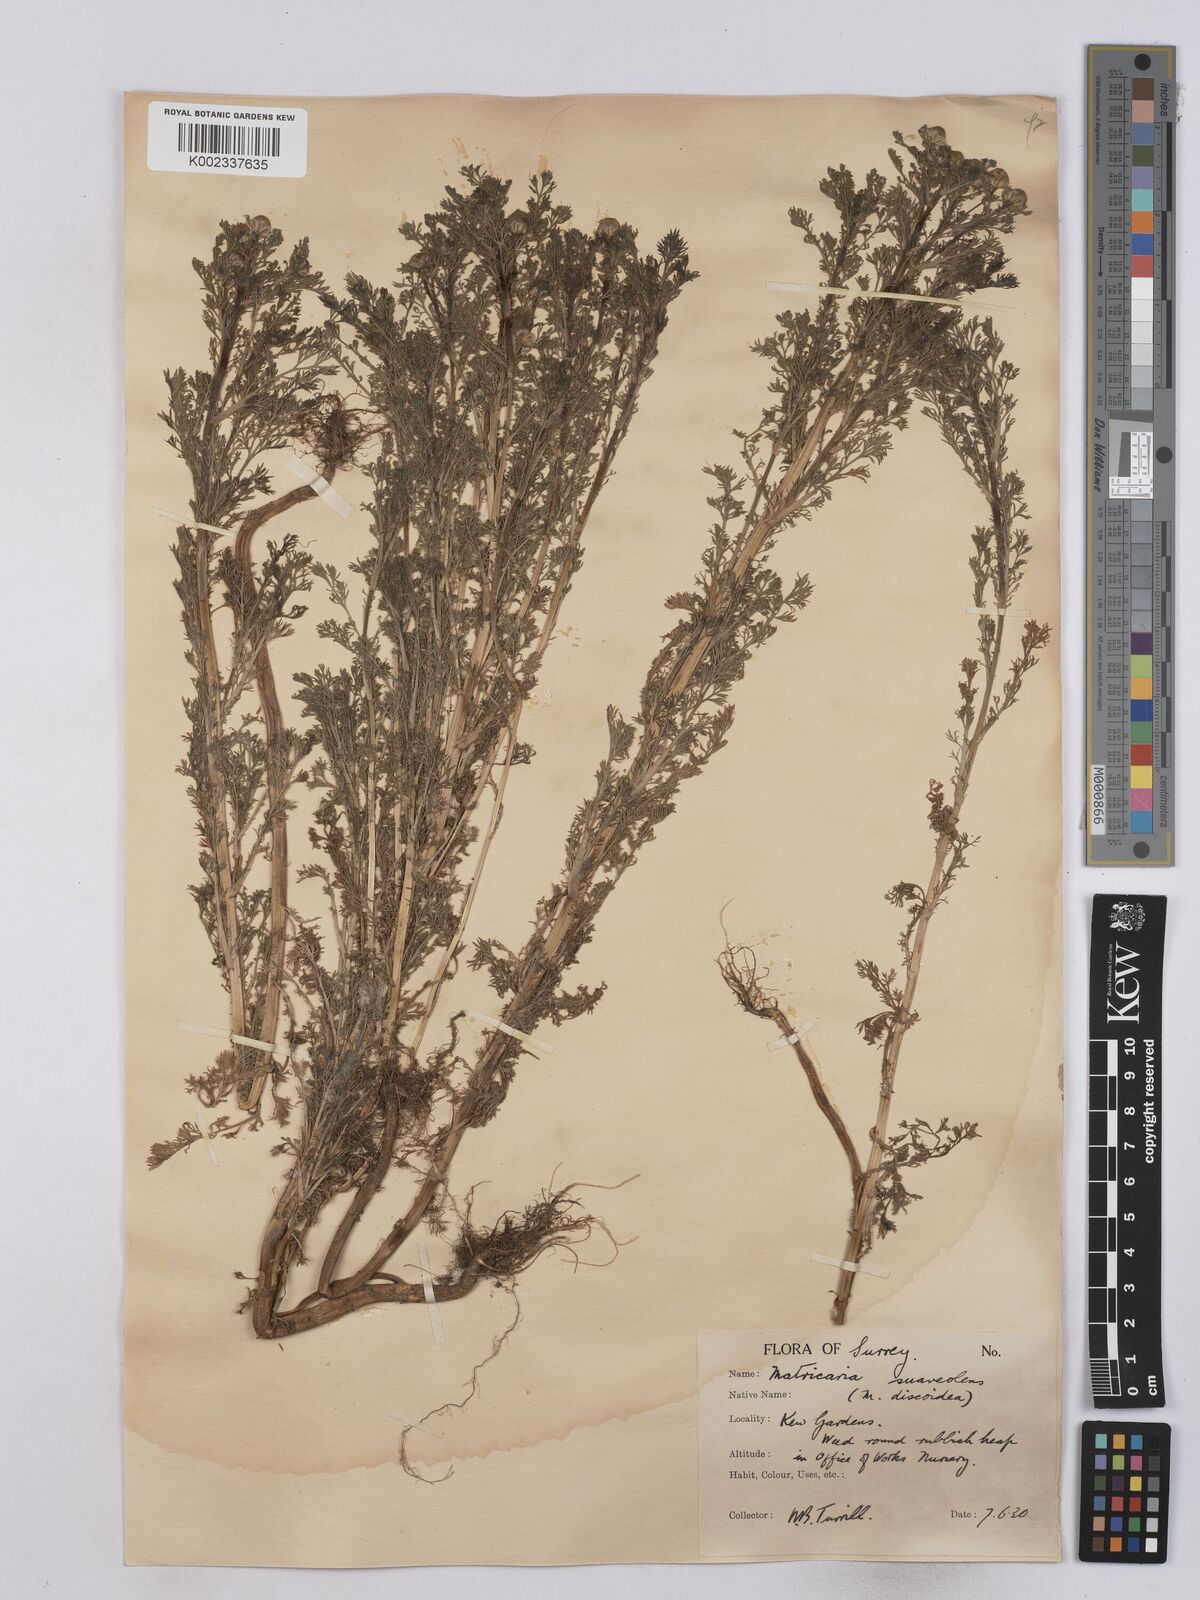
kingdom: Plantae
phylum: Tracheophyta
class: Magnoliopsida
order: Asterales
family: Asteraceae
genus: Matricaria
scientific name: Matricaria discoidea
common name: Disc mayweed
